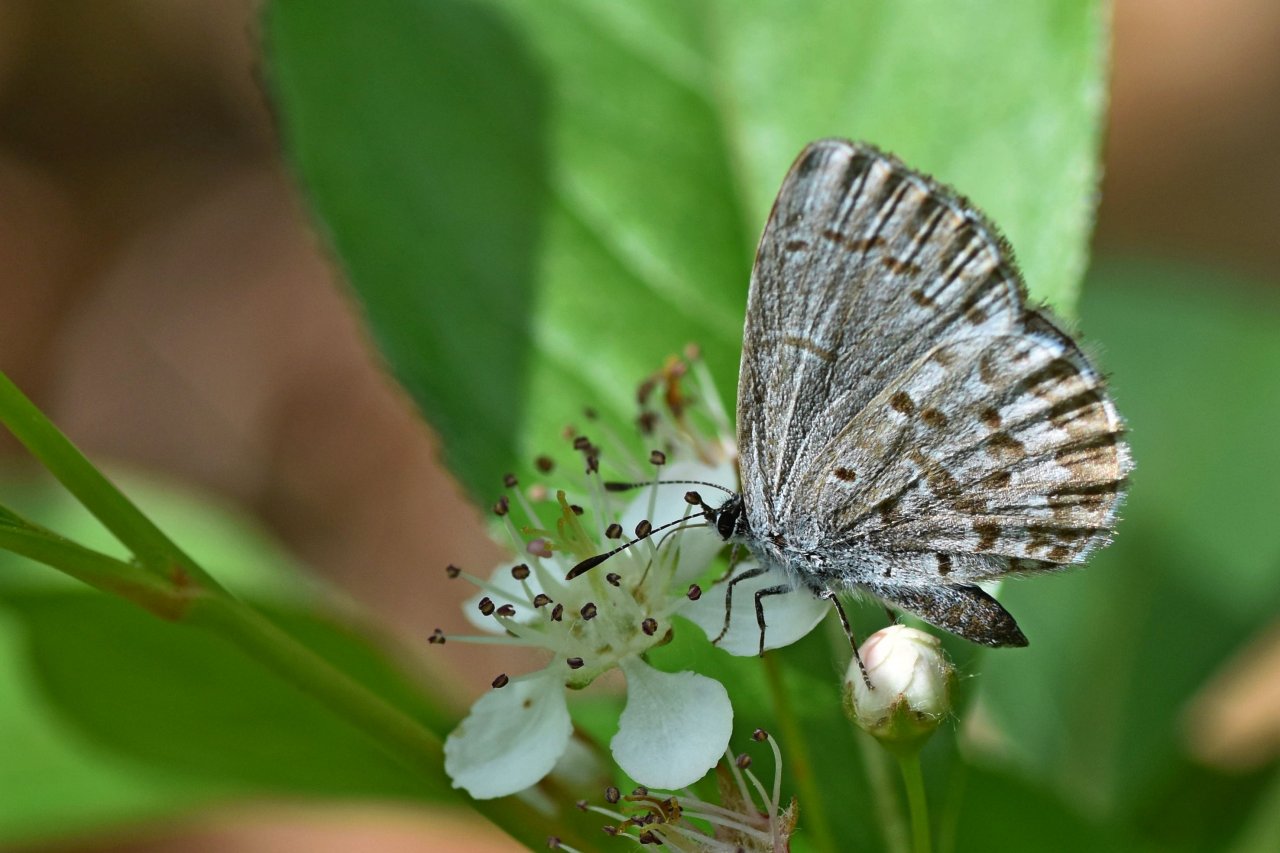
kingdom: Animalia
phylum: Arthropoda
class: Insecta
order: Lepidoptera
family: Lycaenidae
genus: Celastrina
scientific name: Celastrina lucia
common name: Northern Spring Azure
